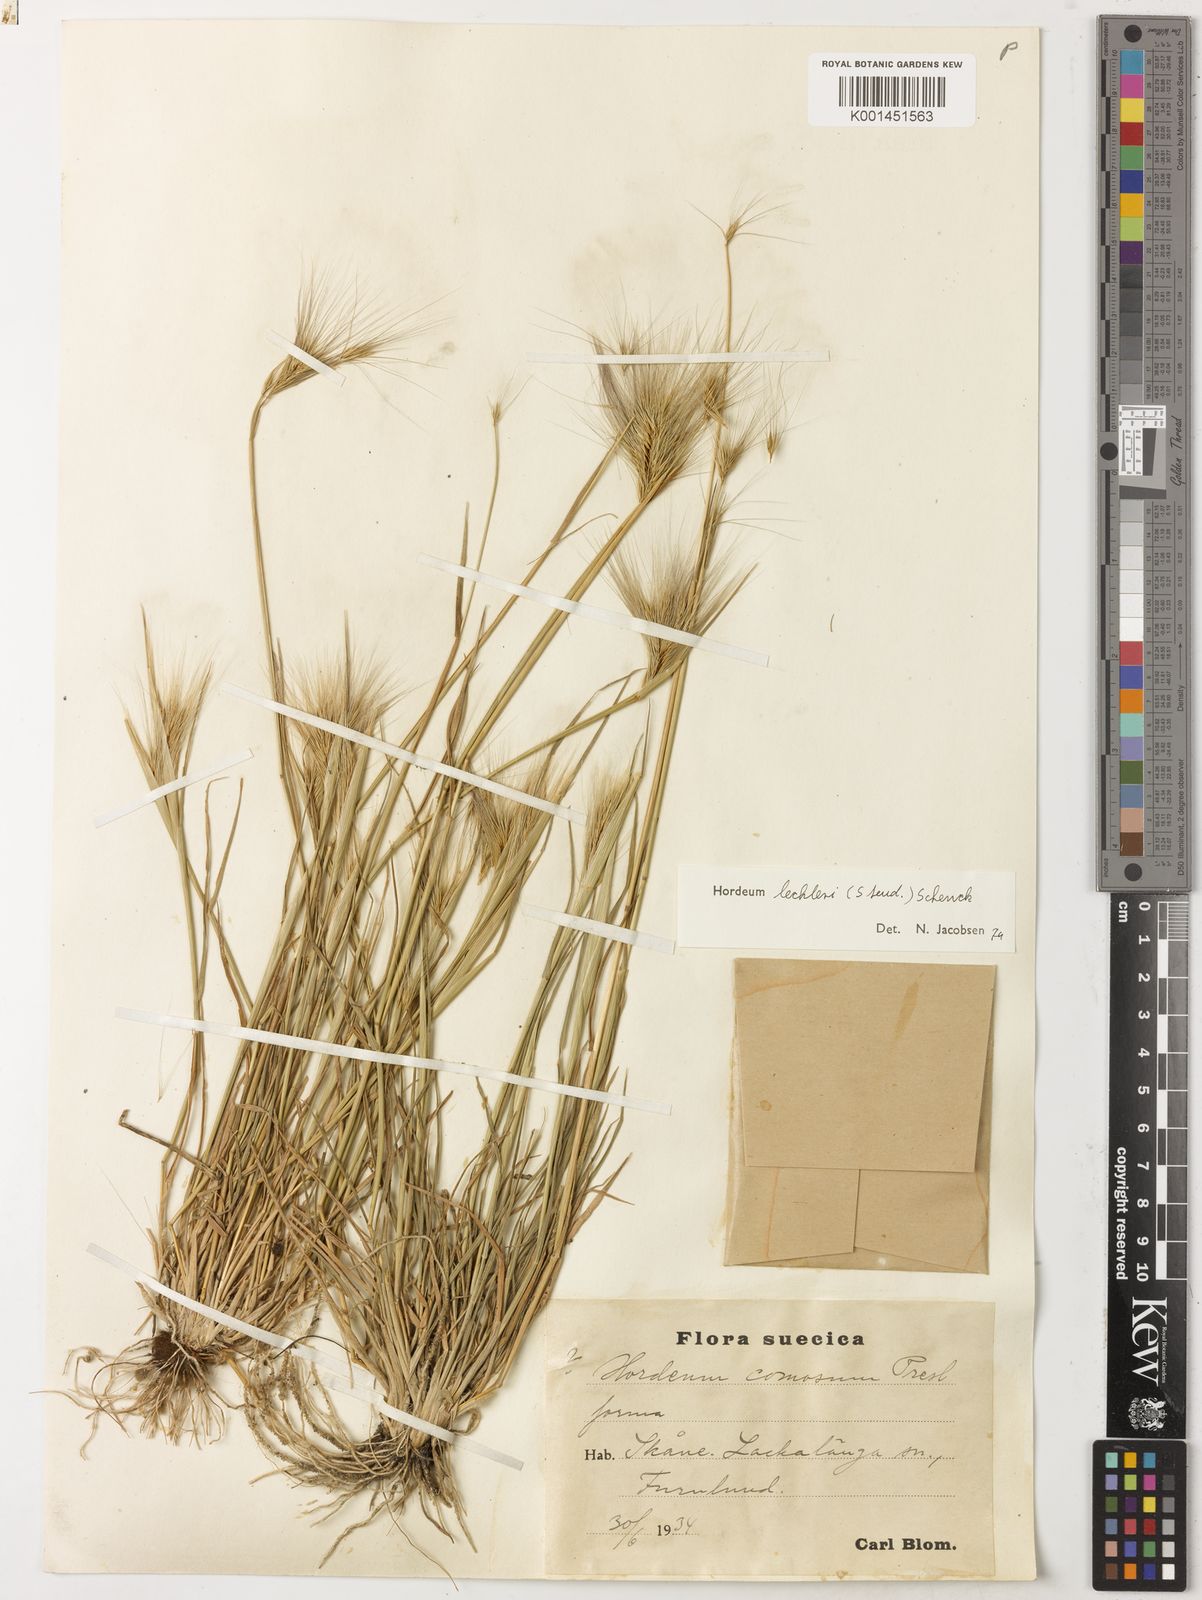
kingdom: Plantae
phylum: Tracheophyta
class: Liliopsida
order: Poales
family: Poaceae
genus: Hordeum
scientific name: Hordeum lechleri
